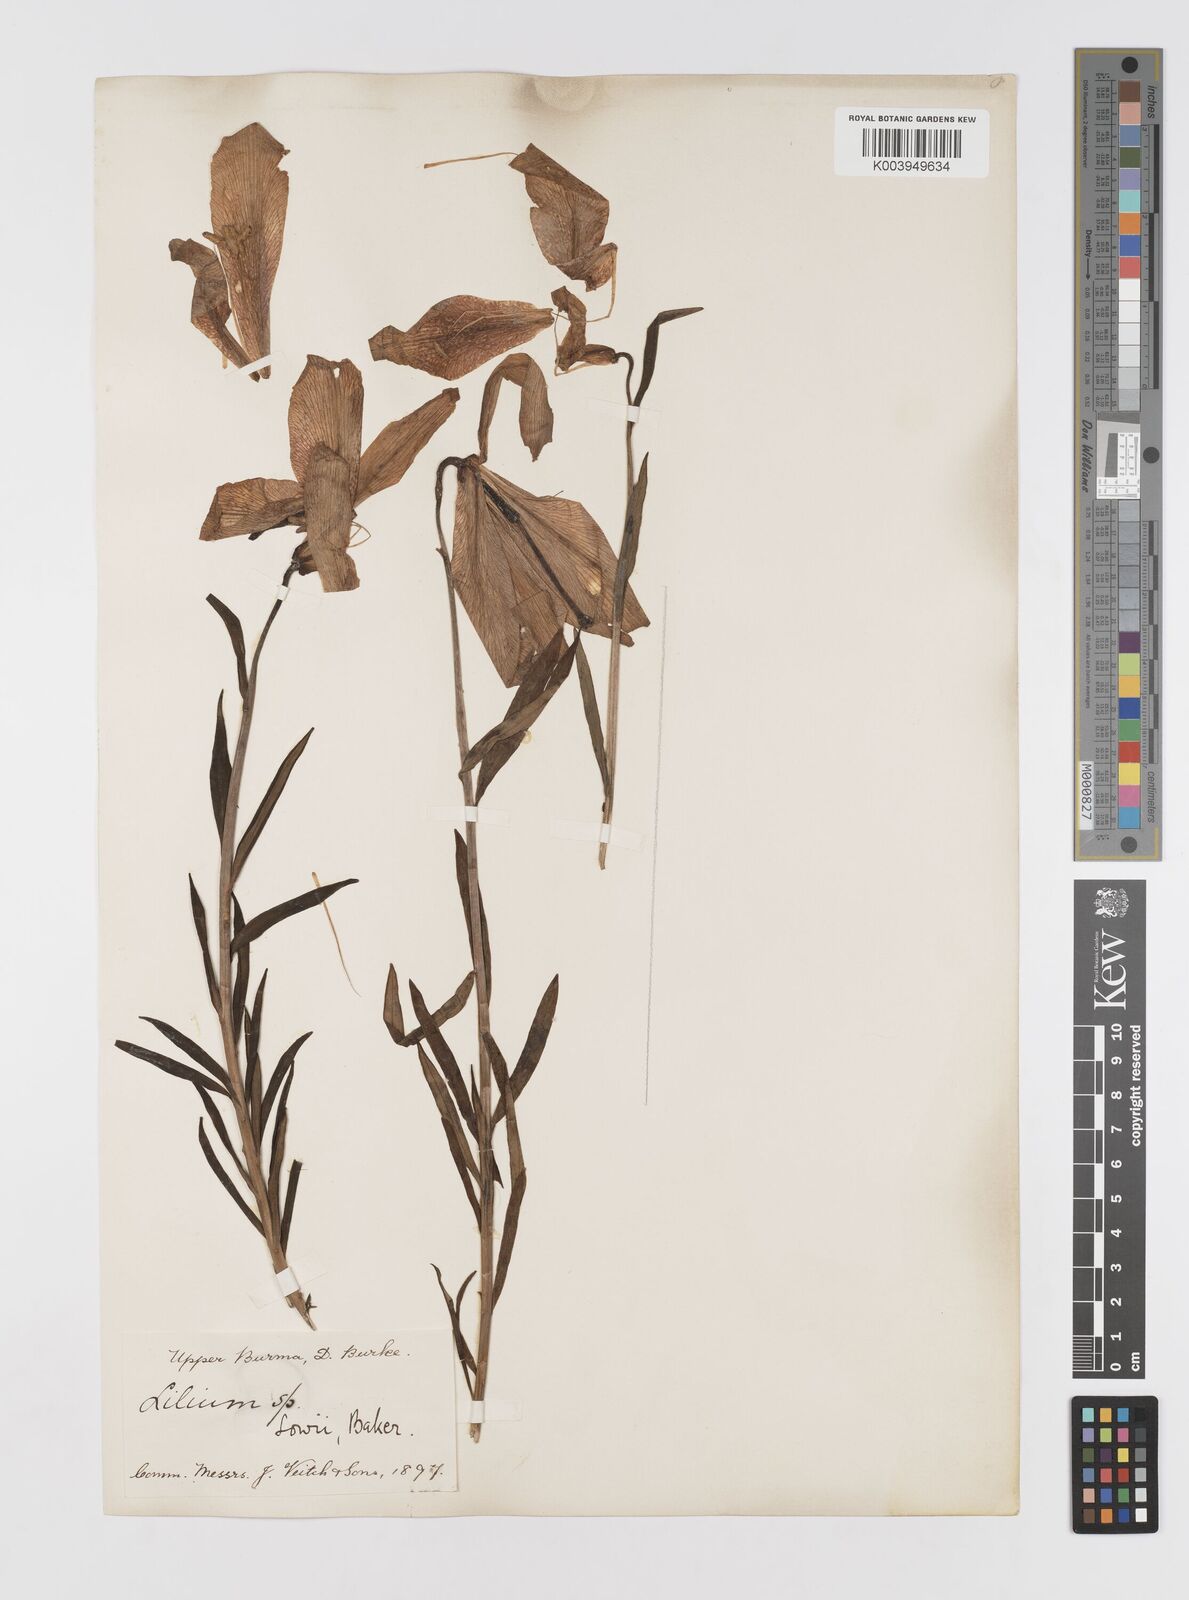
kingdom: Plantae
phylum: Tracheophyta
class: Liliopsida
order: Liliales
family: Liliaceae
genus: Lilium
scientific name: Lilium bakerianum
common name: Baker's lily
